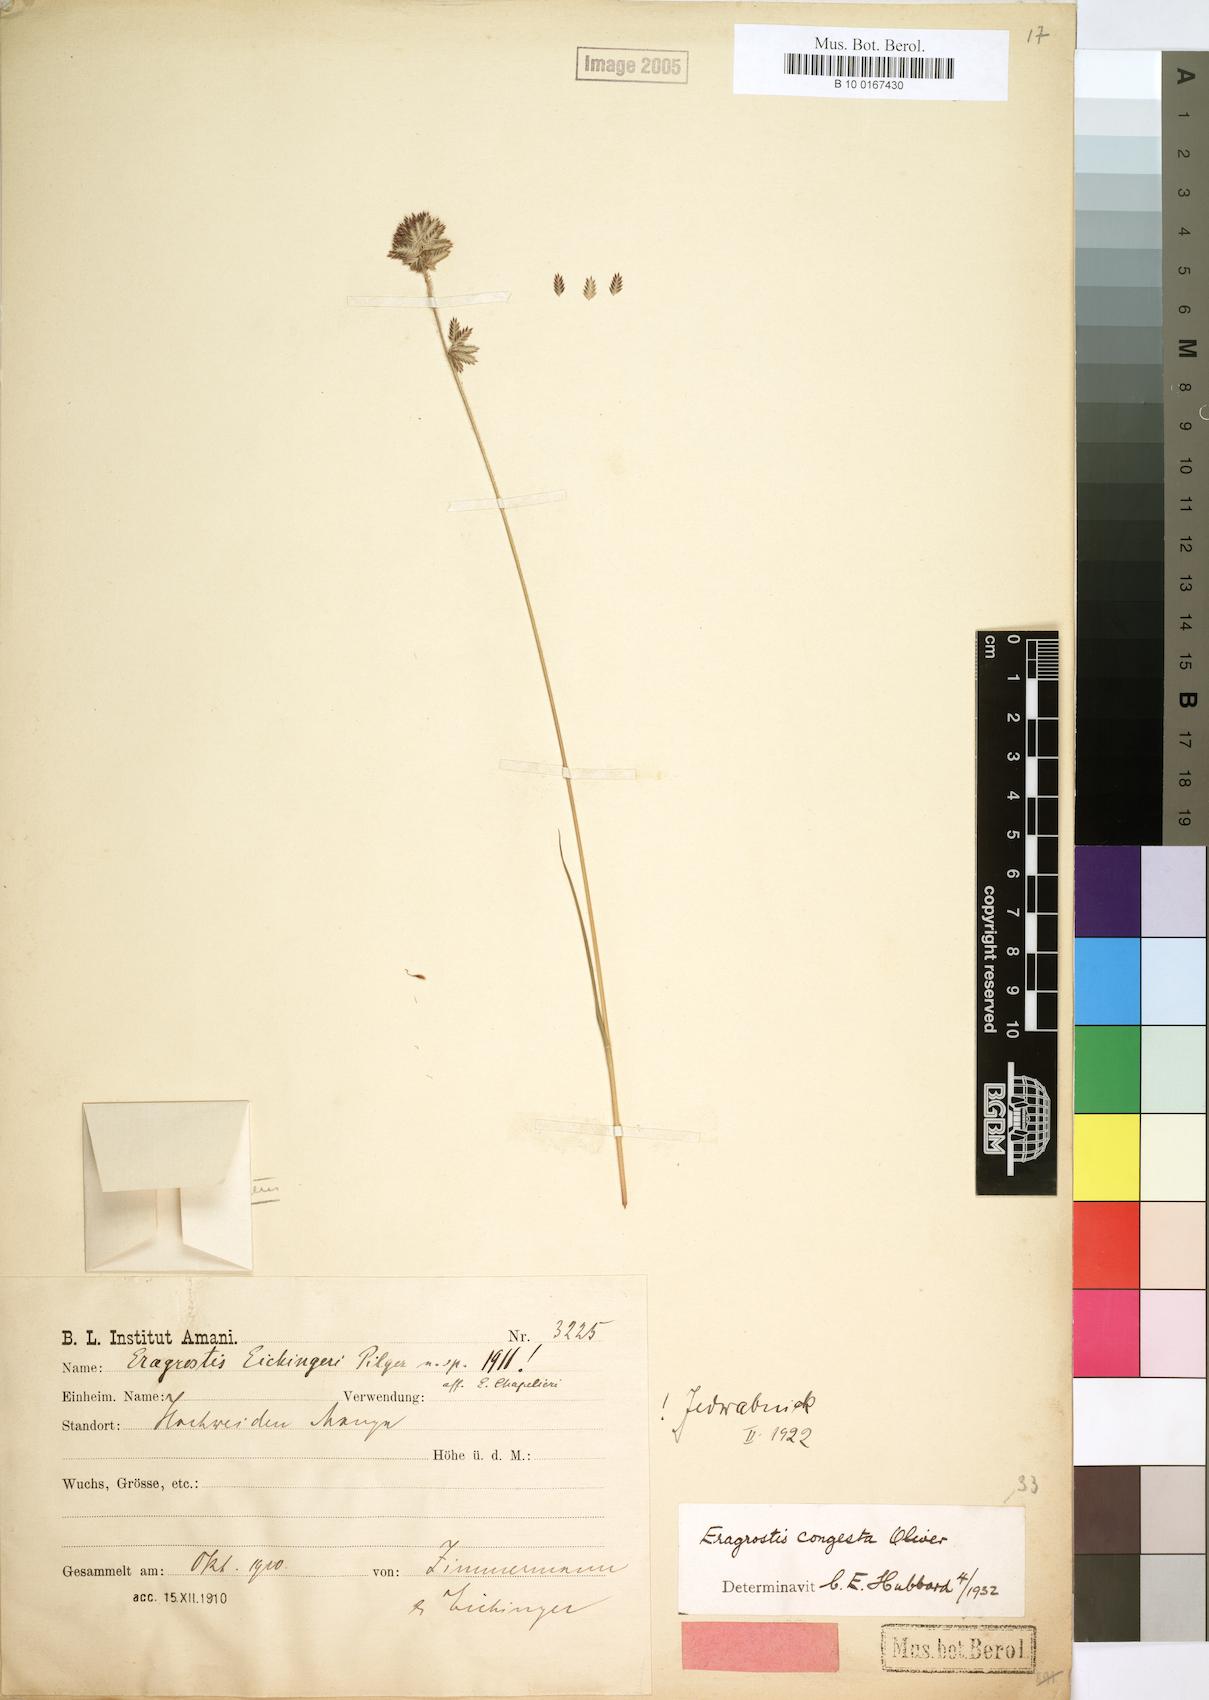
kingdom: Plantae
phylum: Tracheophyta
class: Liliopsida
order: Poales
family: Poaceae
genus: Eragrostis
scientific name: Eragrostis congesta
